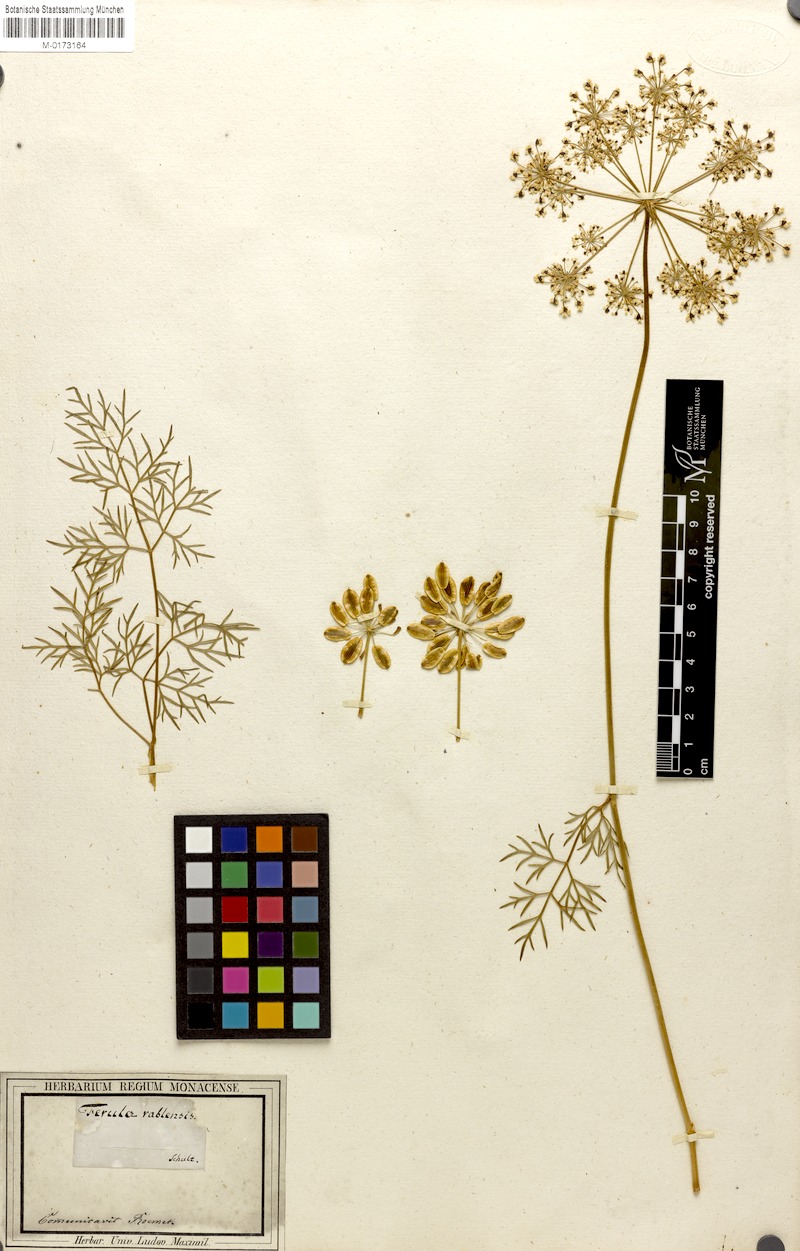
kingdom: Plantae
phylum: Tracheophyta
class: Magnoliopsida
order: Apiales
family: Apiaceae
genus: Peucedanum
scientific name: Peucedanum austriacum
